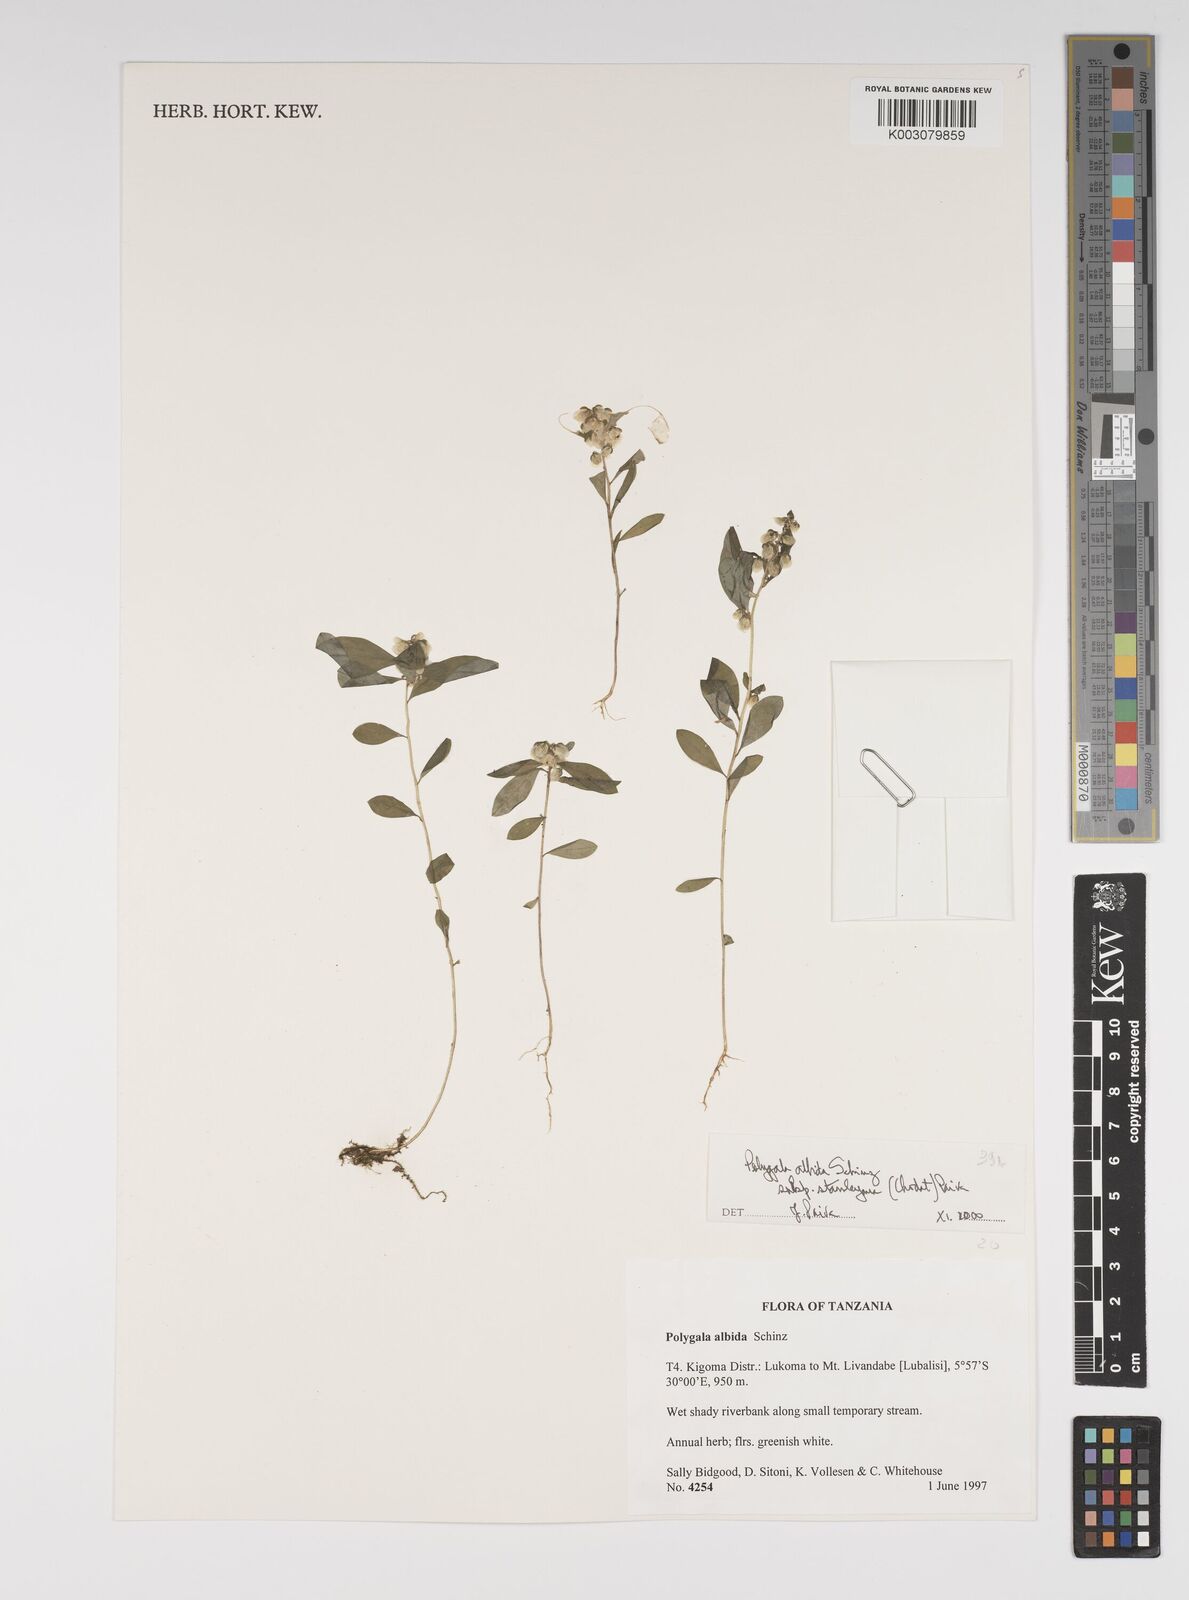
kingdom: Plantae
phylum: Tracheophyta
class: Magnoliopsida
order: Fabales
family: Polygalaceae
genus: Polygala
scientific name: Polygala albida
